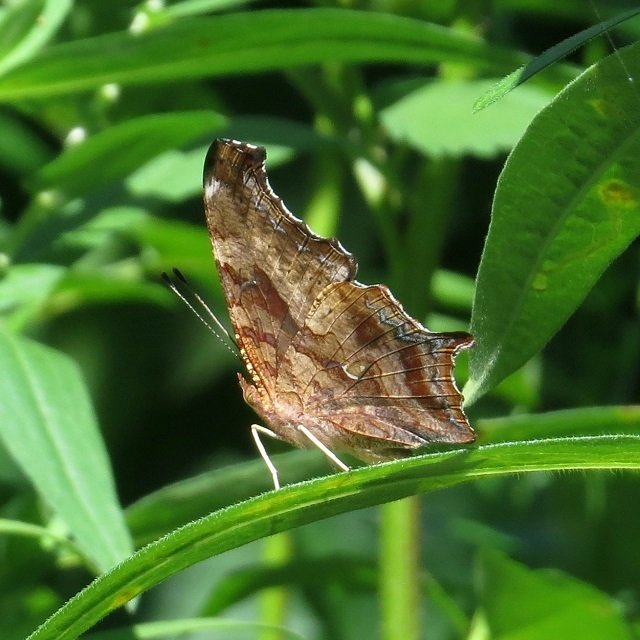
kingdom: Animalia
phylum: Arthropoda
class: Insecta
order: Lepidoptera
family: Nymphalidae
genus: Polygonia
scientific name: Polygonia interrogationis
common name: Question Mark
